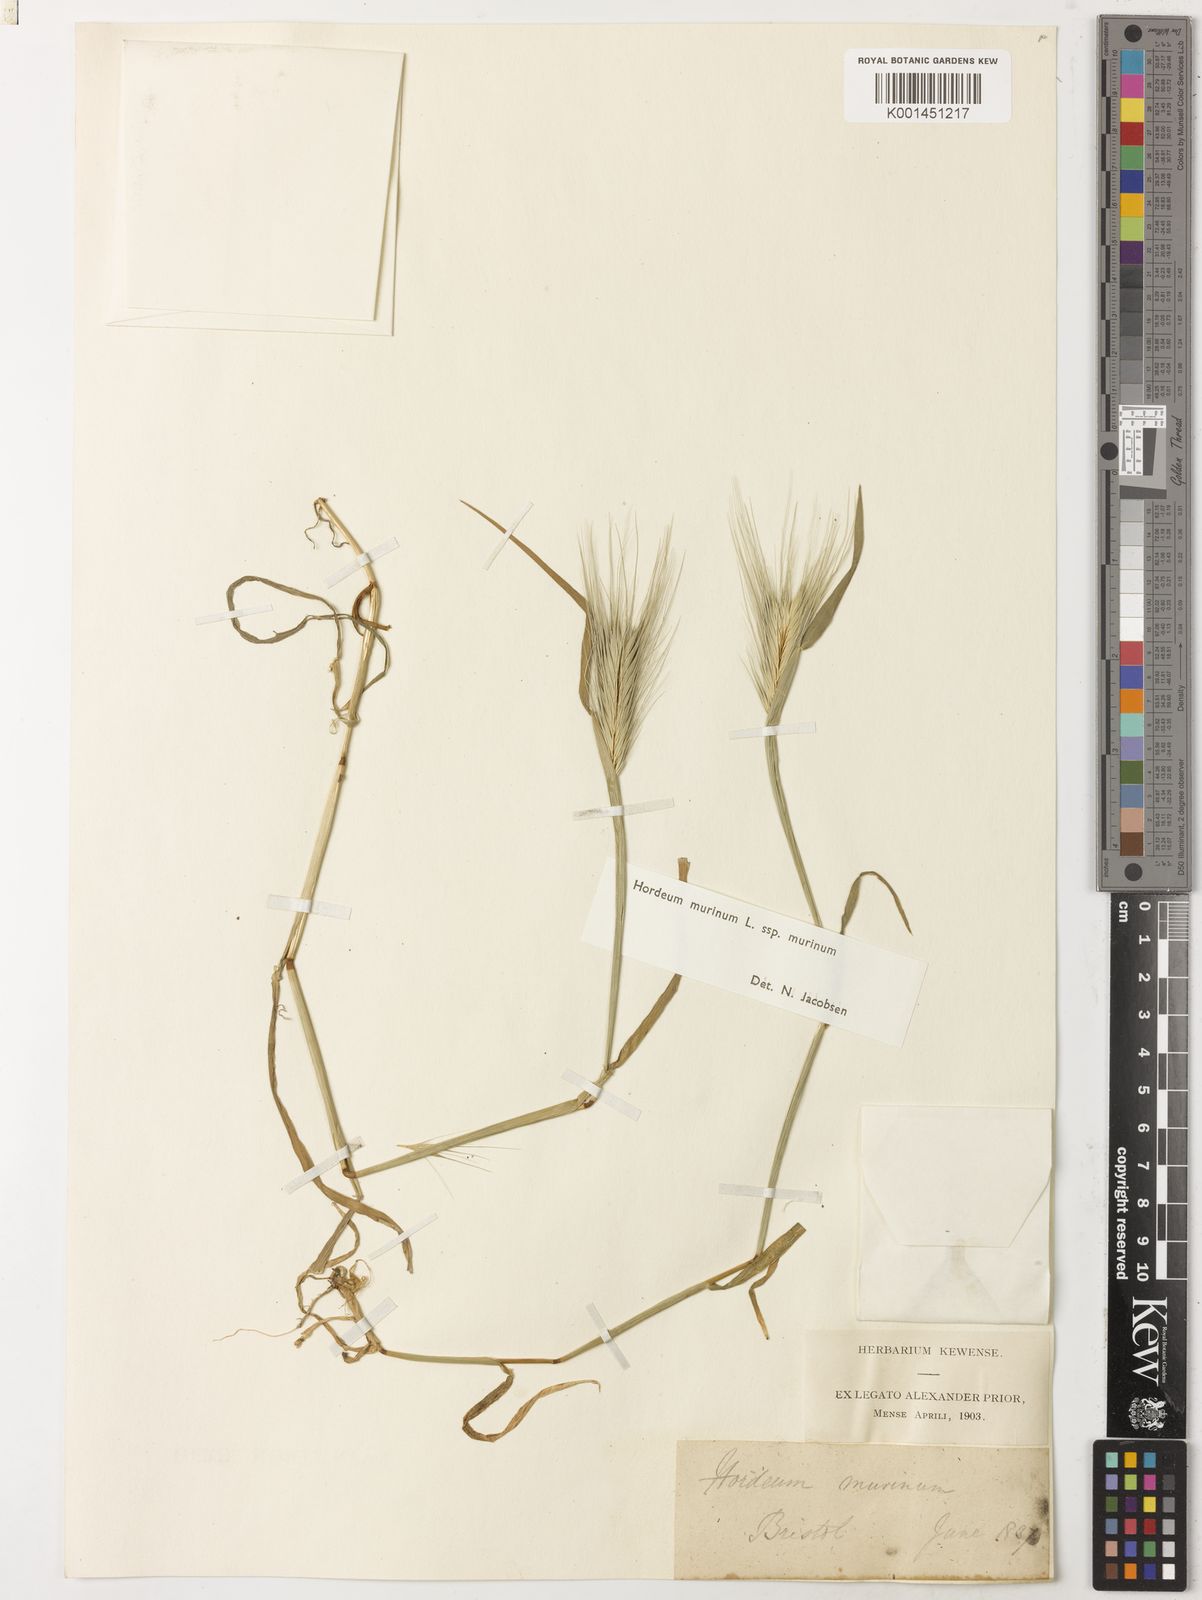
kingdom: Plantae
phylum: Tracheophyta
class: Liliopsida
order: Poales
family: Poaceae
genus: Hordeum
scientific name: Hordeum murinum
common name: Wall barley
